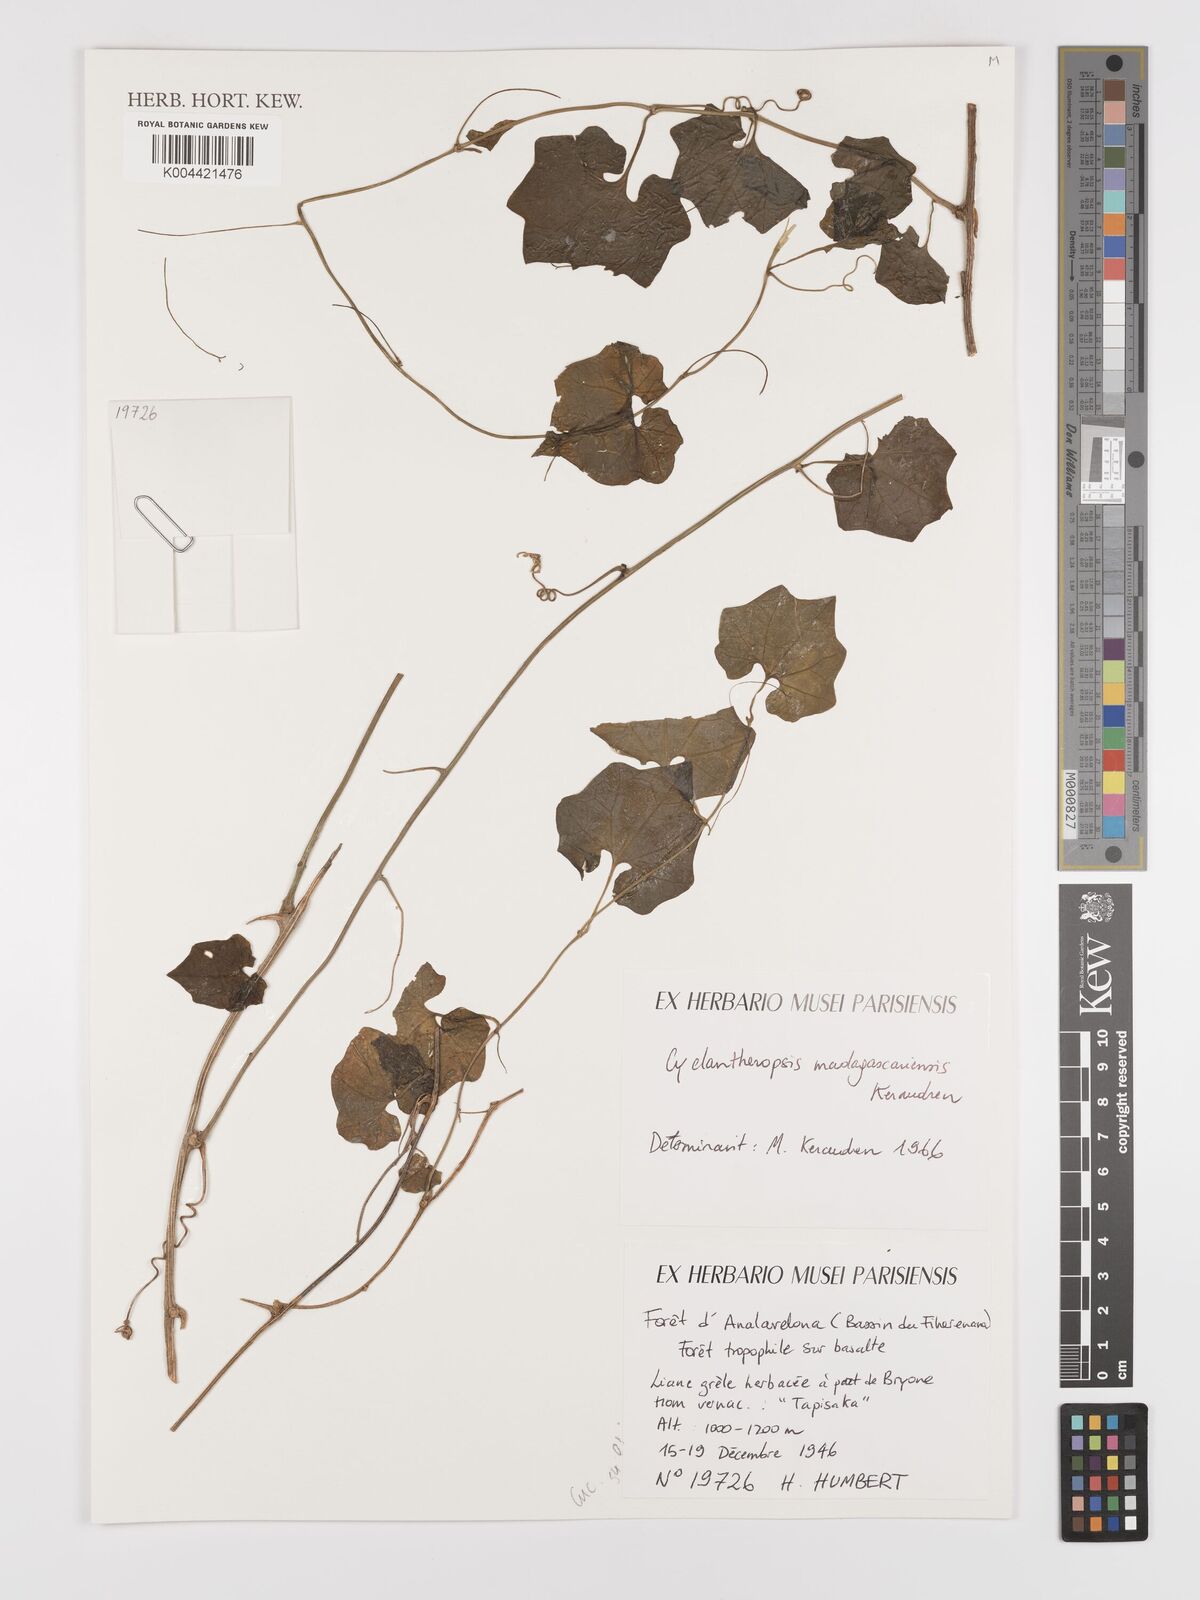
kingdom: Plantae
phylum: Tracheophyta
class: Magnoliopsida
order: Cucurbitales
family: Cucurbitaceae
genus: Cyclantheropsis
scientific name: Cyclantheropsis madagascariensis
